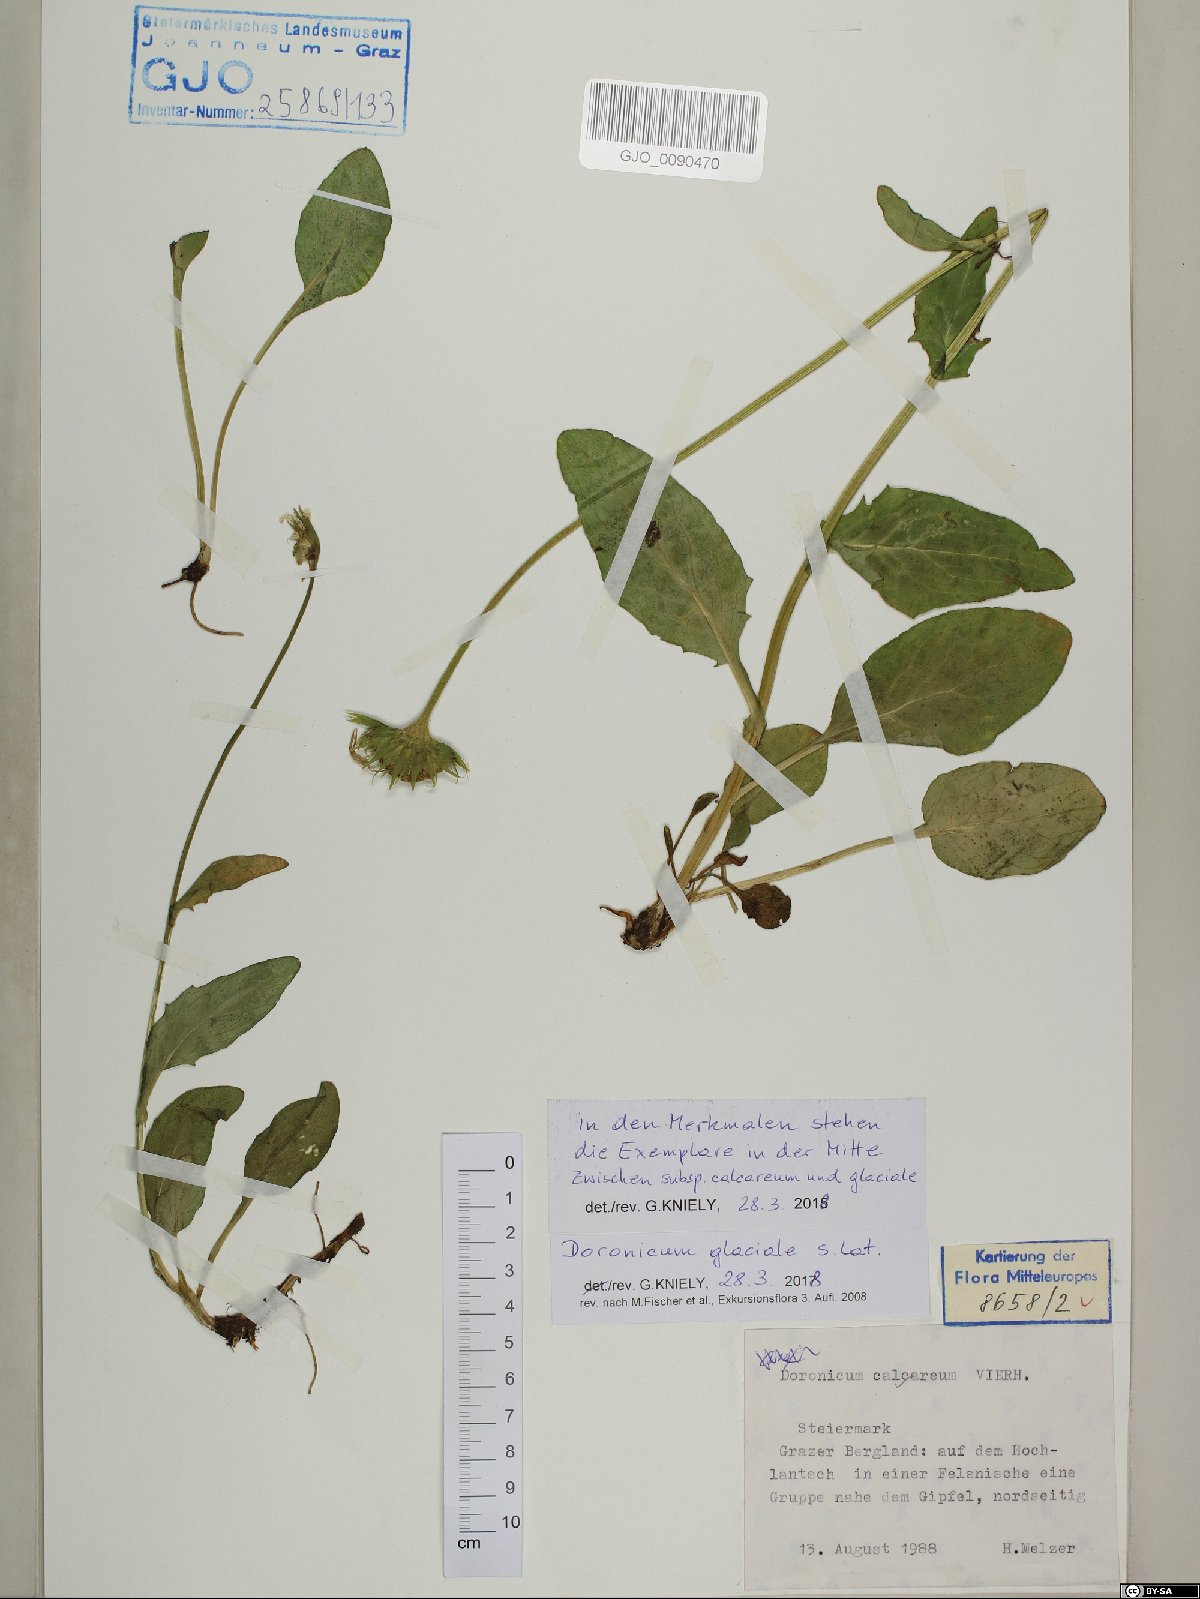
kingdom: Plantae
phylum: Tracheophyta
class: Magnoliopsida
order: Asterales
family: Asteraceae
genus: Doronicum
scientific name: Doronicum glaciale
